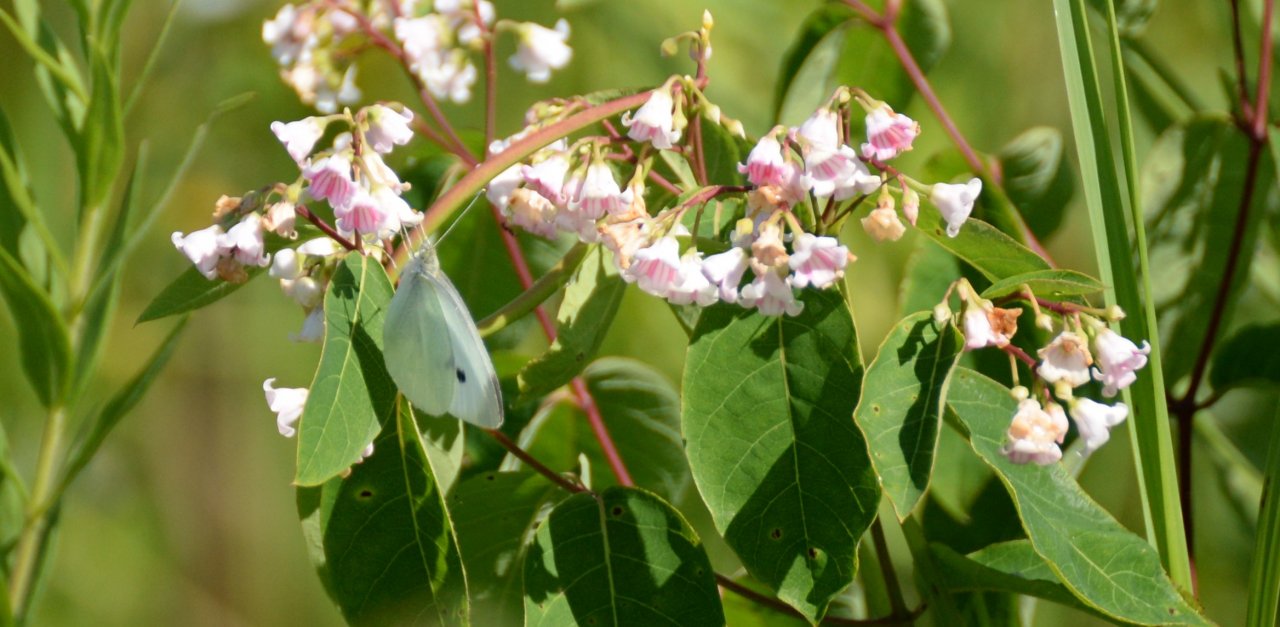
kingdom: Animalia
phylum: Arthropoda
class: Insecta
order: Lepidoptera
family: Pieridae
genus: Pieris
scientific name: Pieris rapae
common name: Cabbage White
